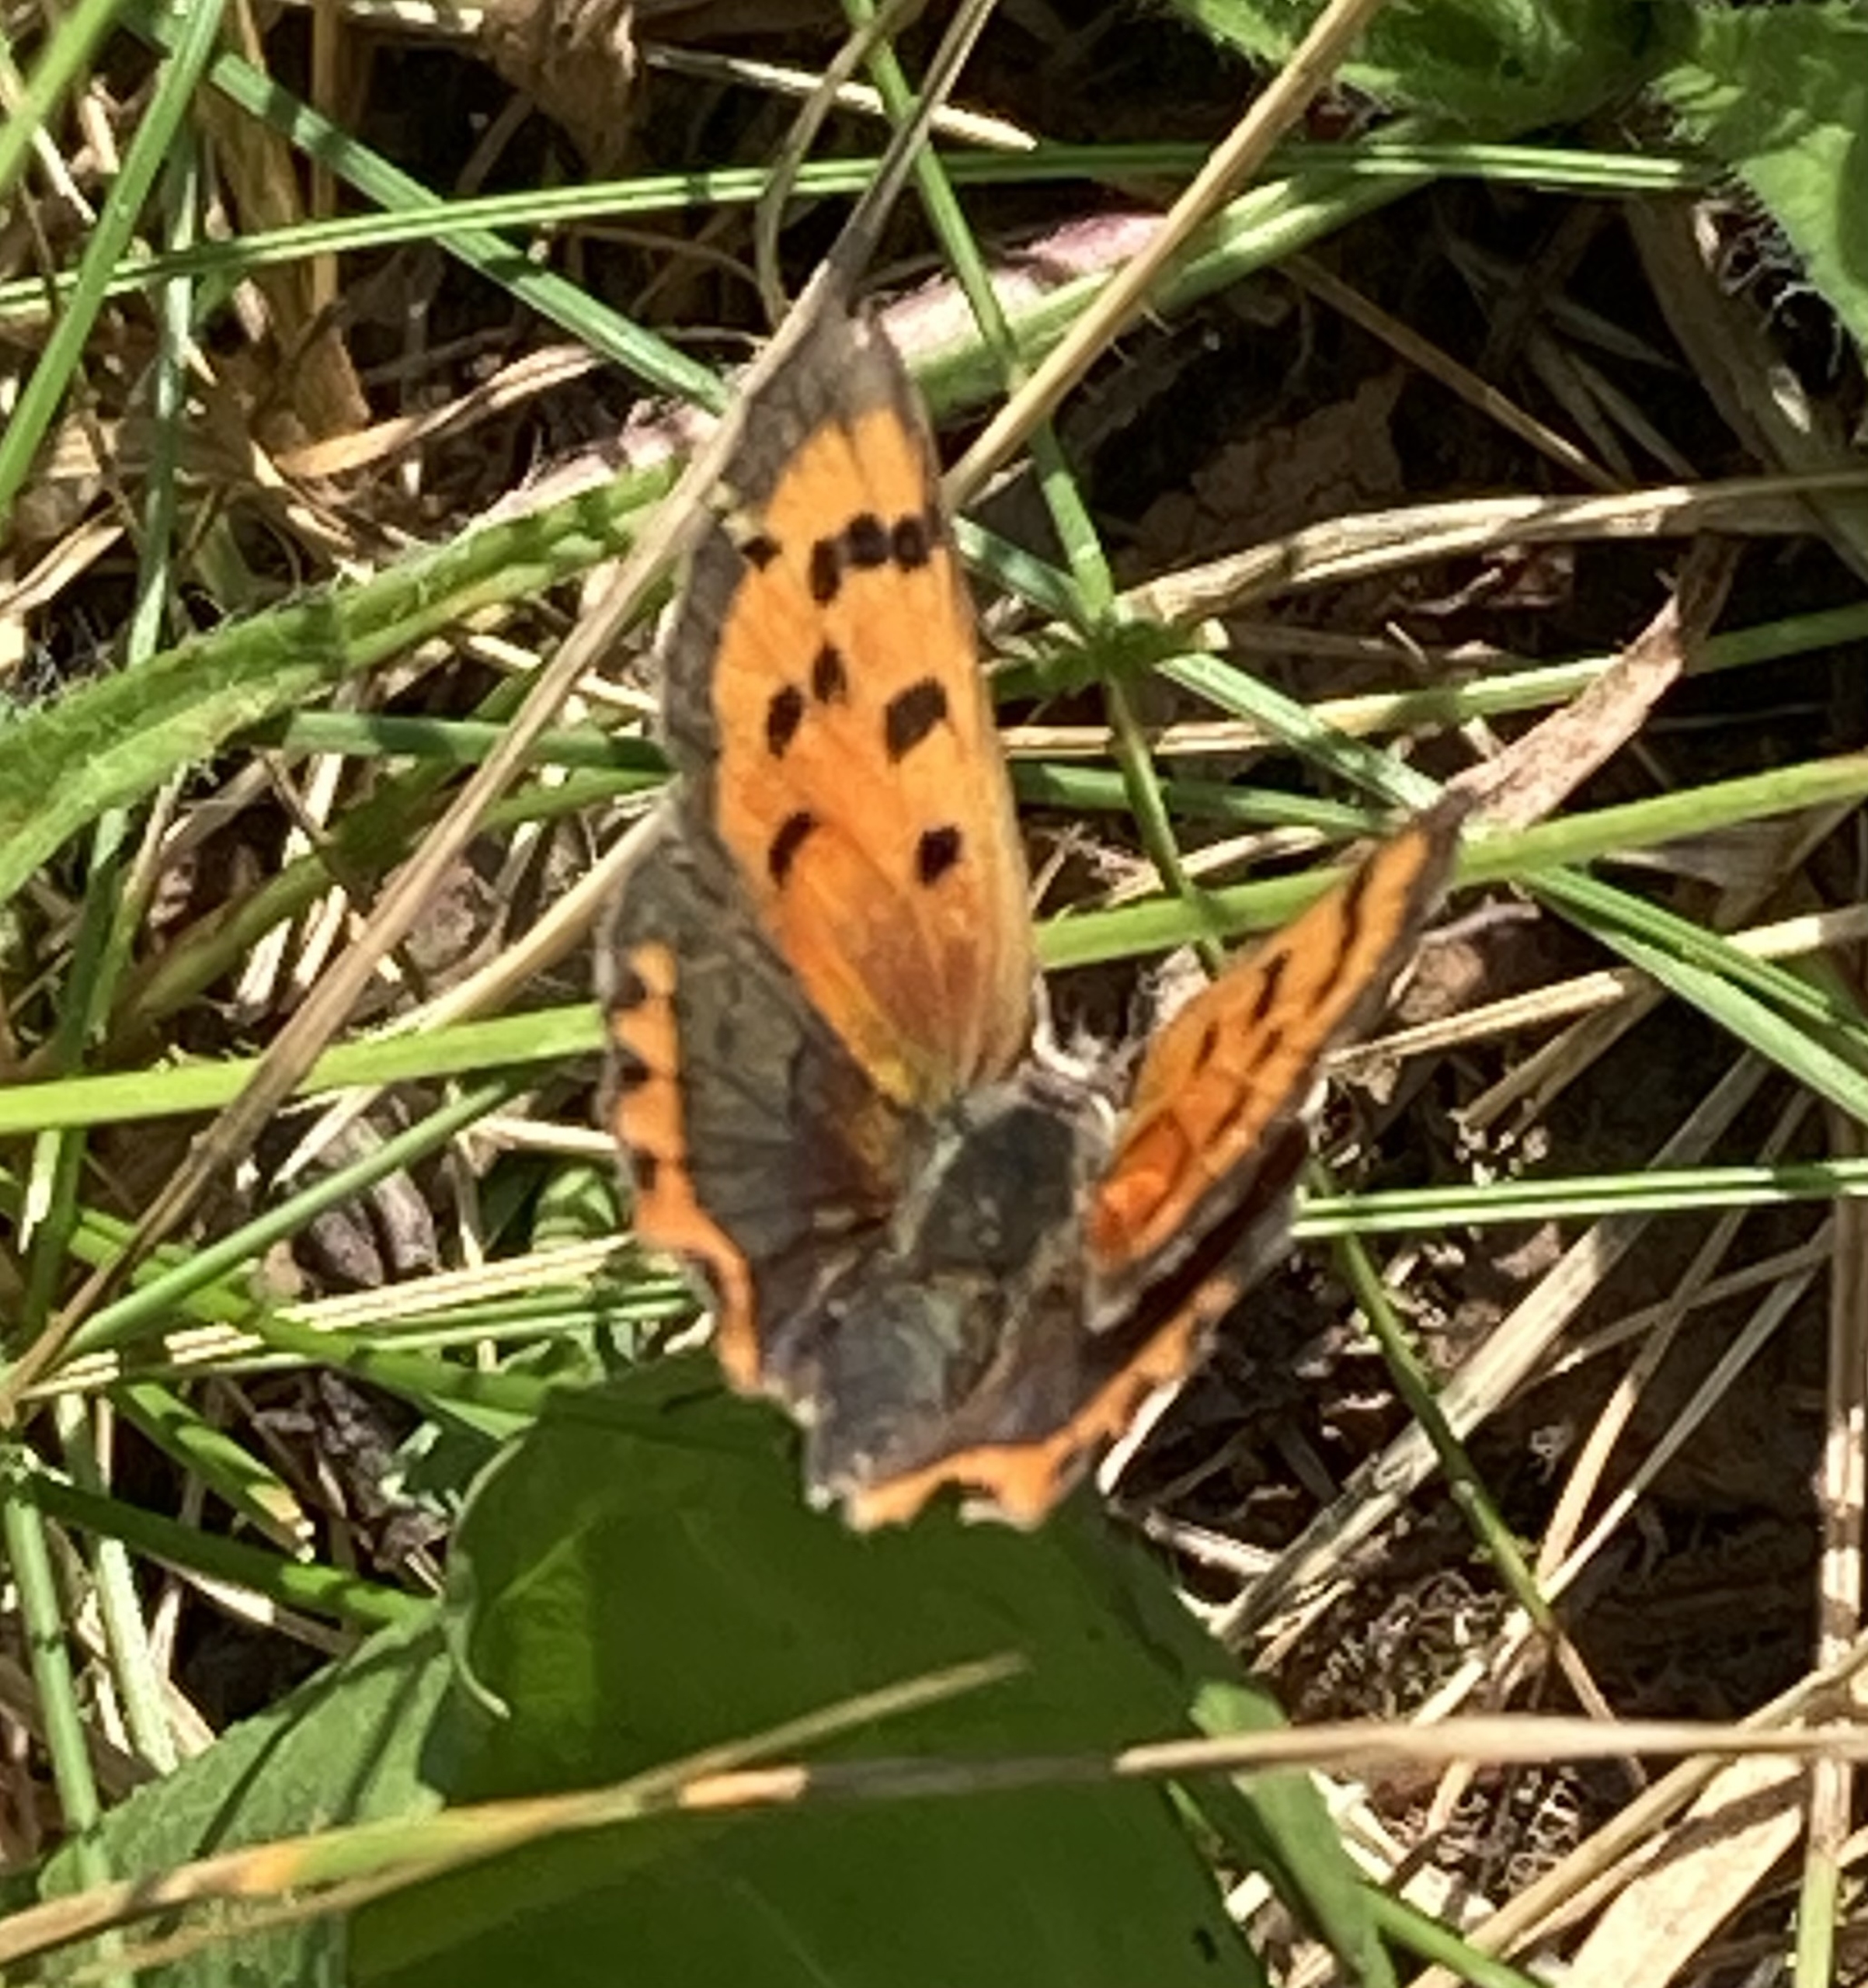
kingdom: Animalia
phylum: Arthropoda
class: Insecta
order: Lepidoptera
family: Lycaenidae
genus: Lycaena
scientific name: Lycaena phlaeas
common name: Lille ildfugl
